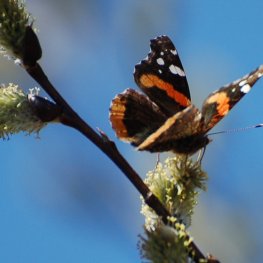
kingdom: Animalia
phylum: Arthropoda
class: Insecta
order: Lepidoptera
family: Nymphalidae
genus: Vanessa
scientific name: Vanessa atalanta
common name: Red Admiral
